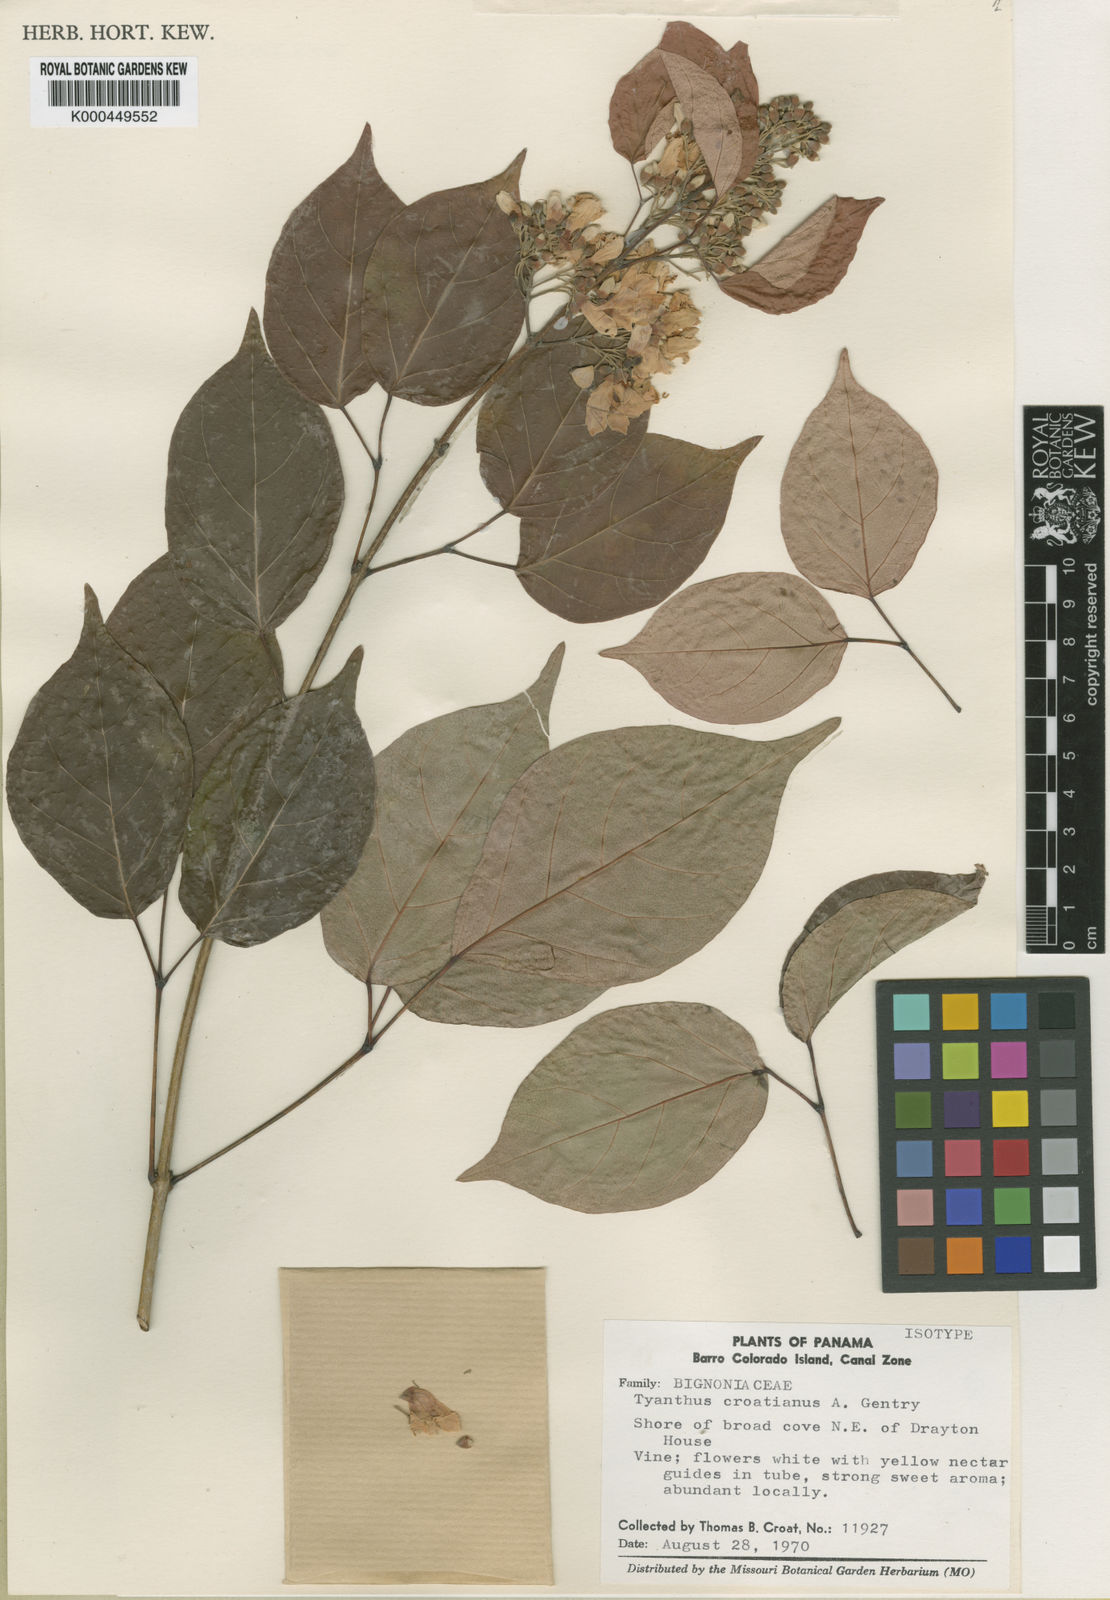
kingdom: Plantae
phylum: Tracheophyta
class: Magnoliopsida
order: Lamiales
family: Bignoniaceae
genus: Tynanthus
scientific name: Tynanthus croatianus
